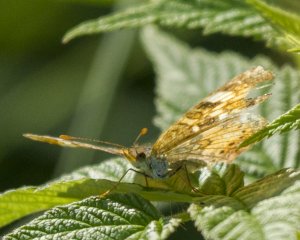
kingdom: Animalia
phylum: Arthropoda
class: Insecta
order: Lepidoptera
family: Nymphalidae
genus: Phyciodes
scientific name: Phyciodes tharos
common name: Northern Crescent
